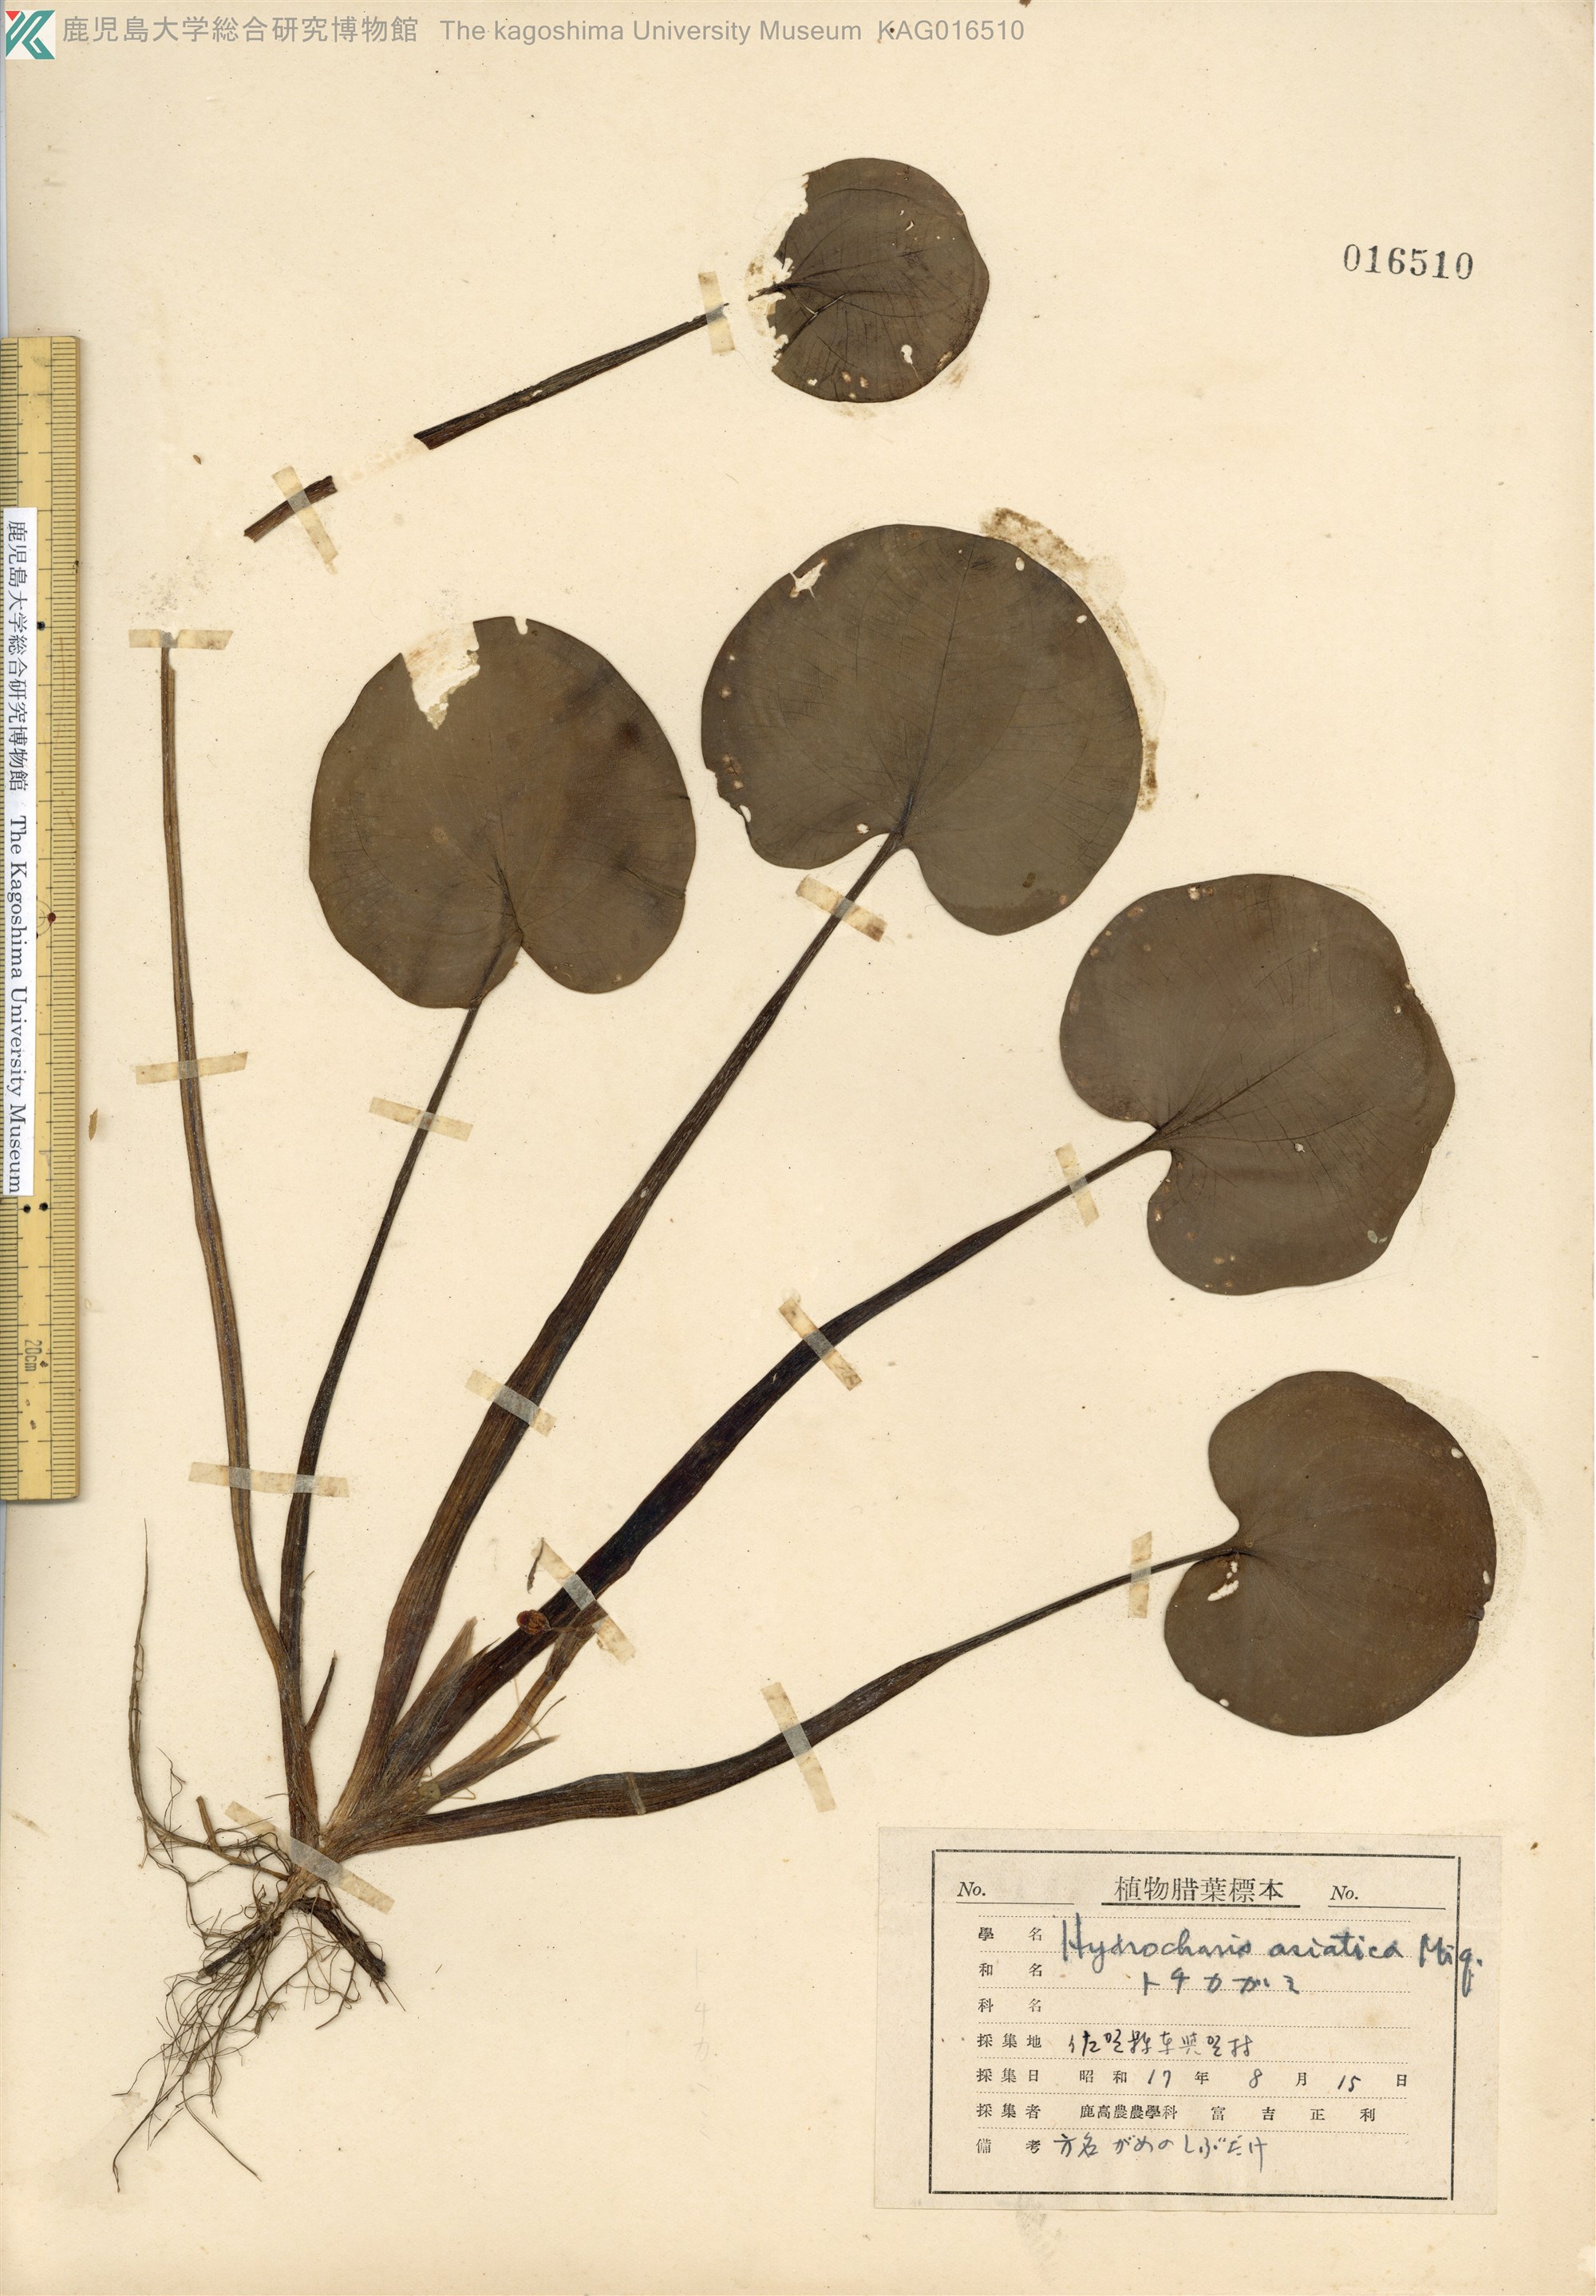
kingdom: Plantae
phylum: Tracheophyta
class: Liliopsida
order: Alismatales
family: Hydrocharitaceae
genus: Hydrocharis
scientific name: Hydrocharis dubia
